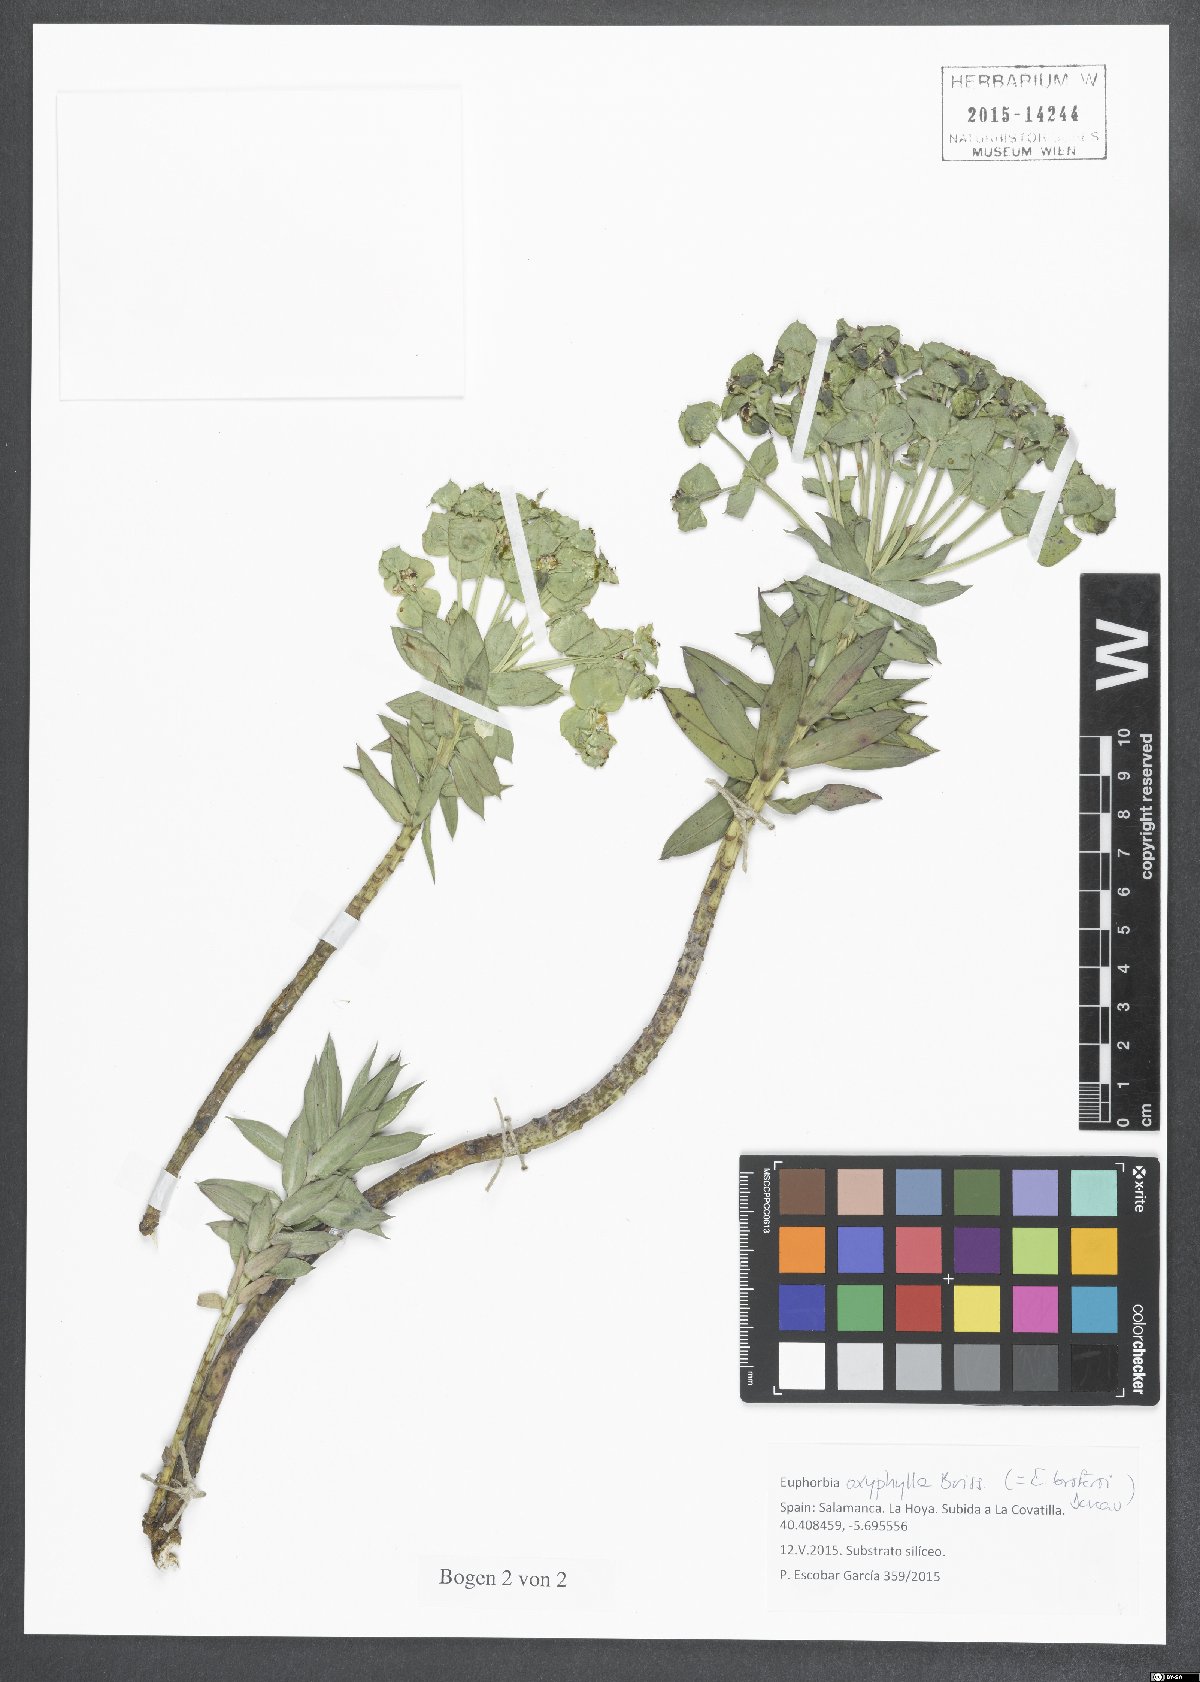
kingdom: Plantae
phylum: Tracheophyta
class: Magnoliopsida
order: Malpighiales
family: Euphorbiaceae
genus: Euphorbia
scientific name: Euphorbia oxyphylla
